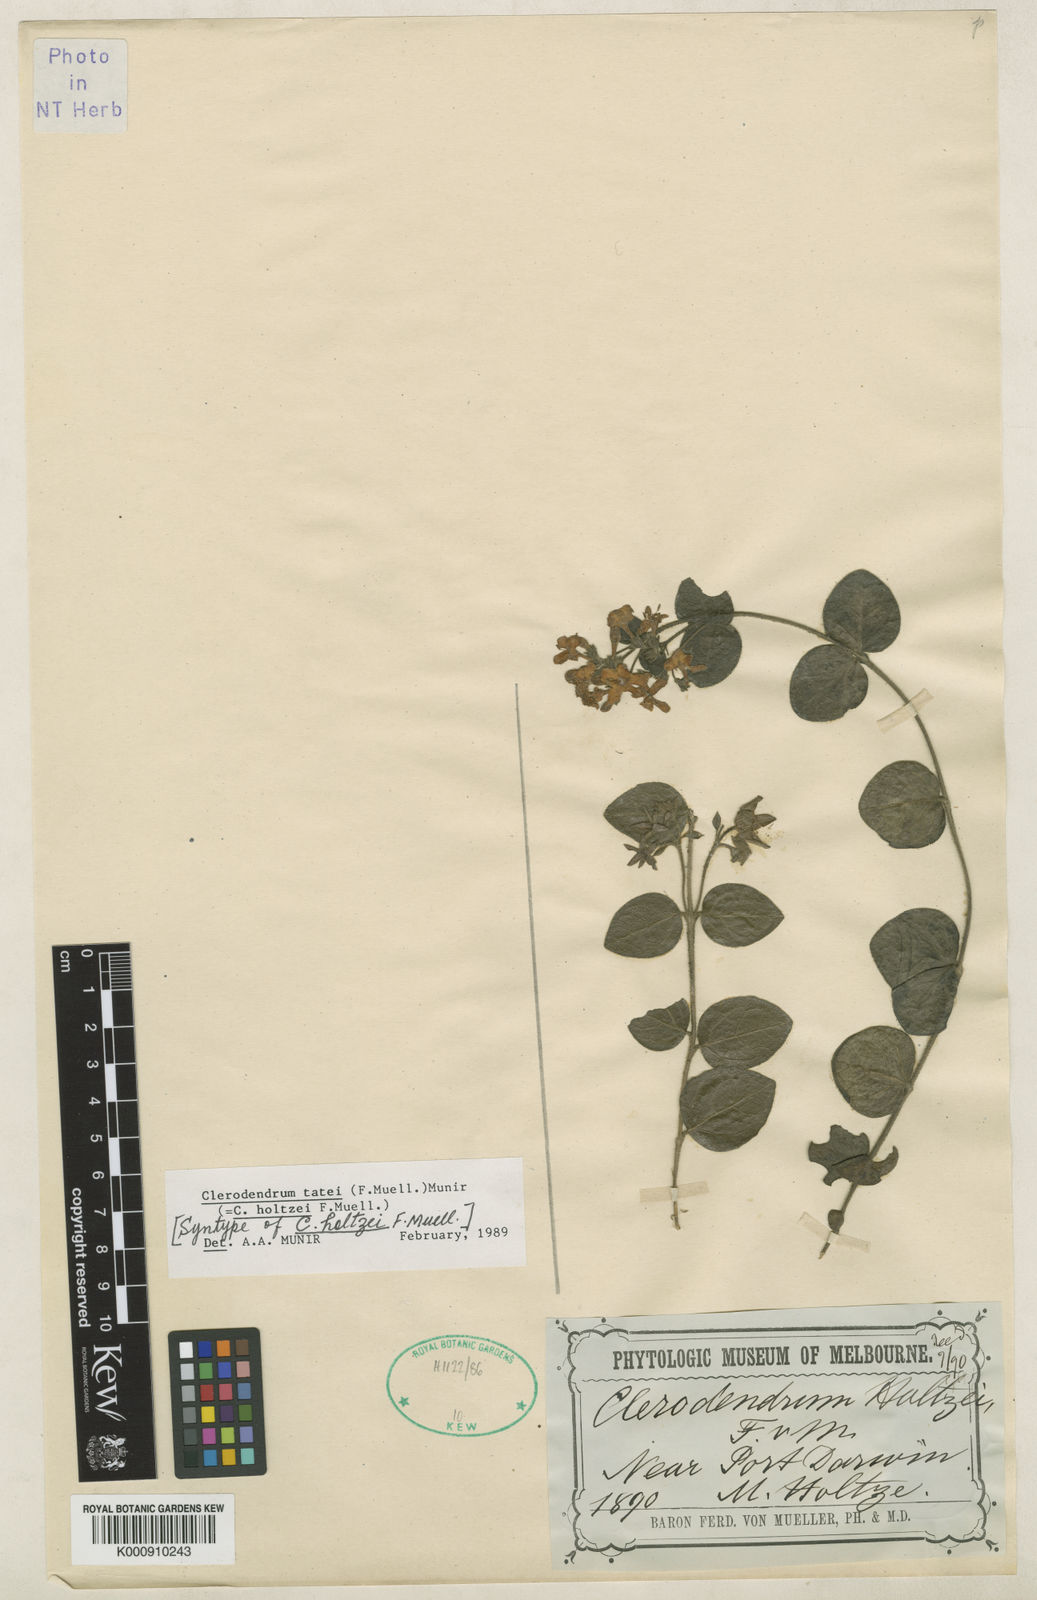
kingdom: Plantae
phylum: Tracheophyta
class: Magnoliopsida
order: Lamiales
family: Lamiaceae
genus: Clerodendrum
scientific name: Clerodendrum tatei
